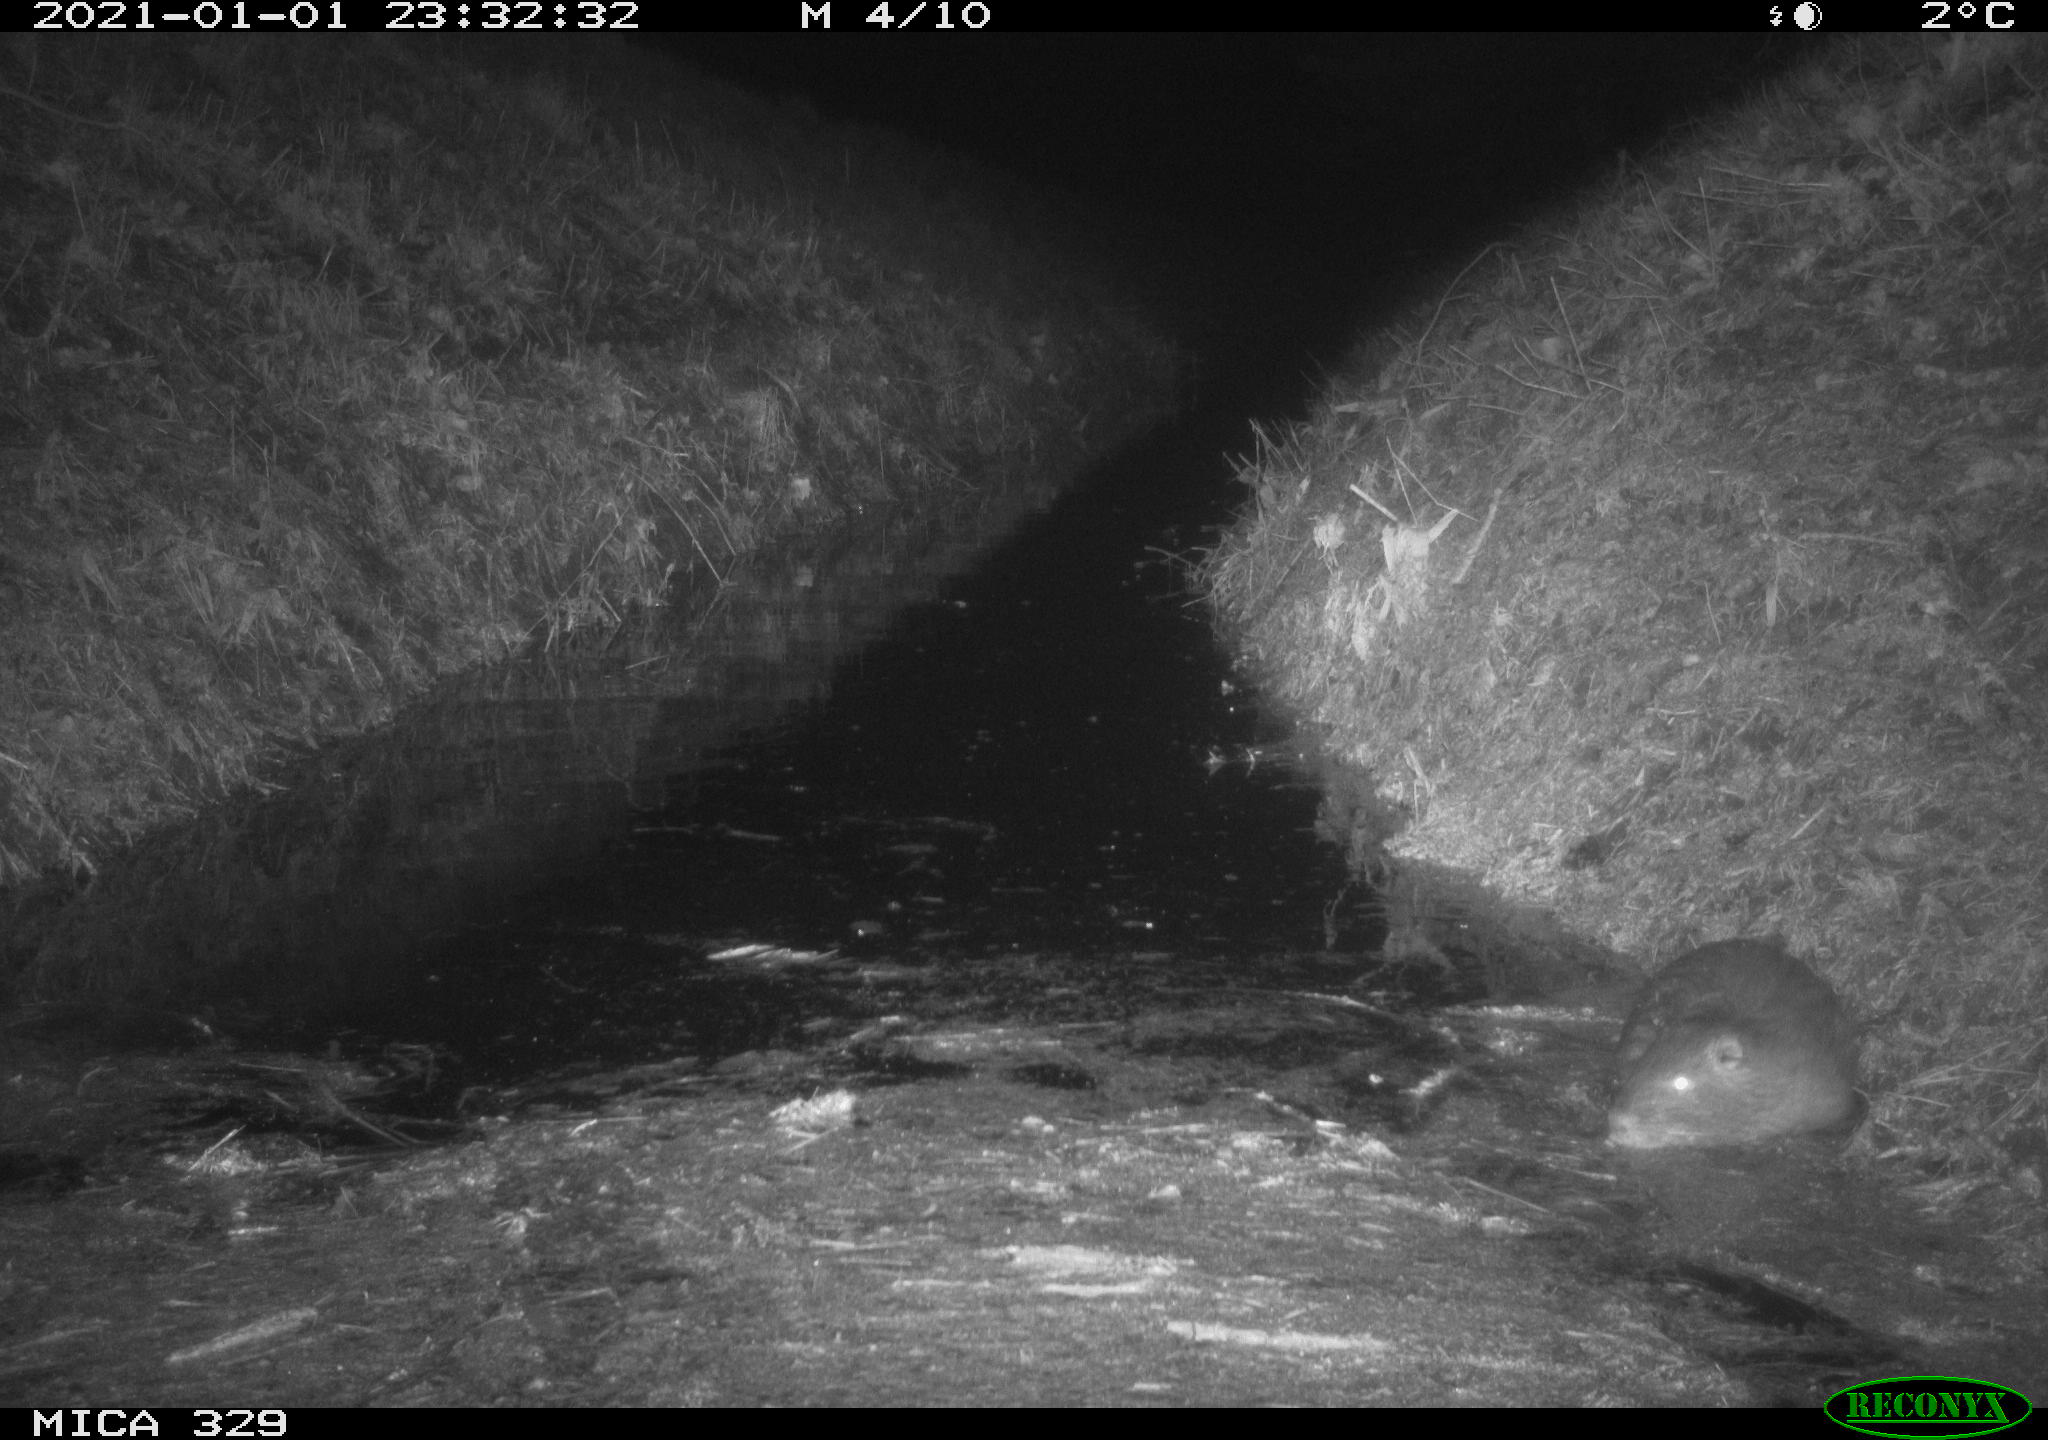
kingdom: Animalia
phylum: Chordata
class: Mammalia
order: Rodentia
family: Myocastoridae
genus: Myocastor
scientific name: Myocastor coypus
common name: Coypu
